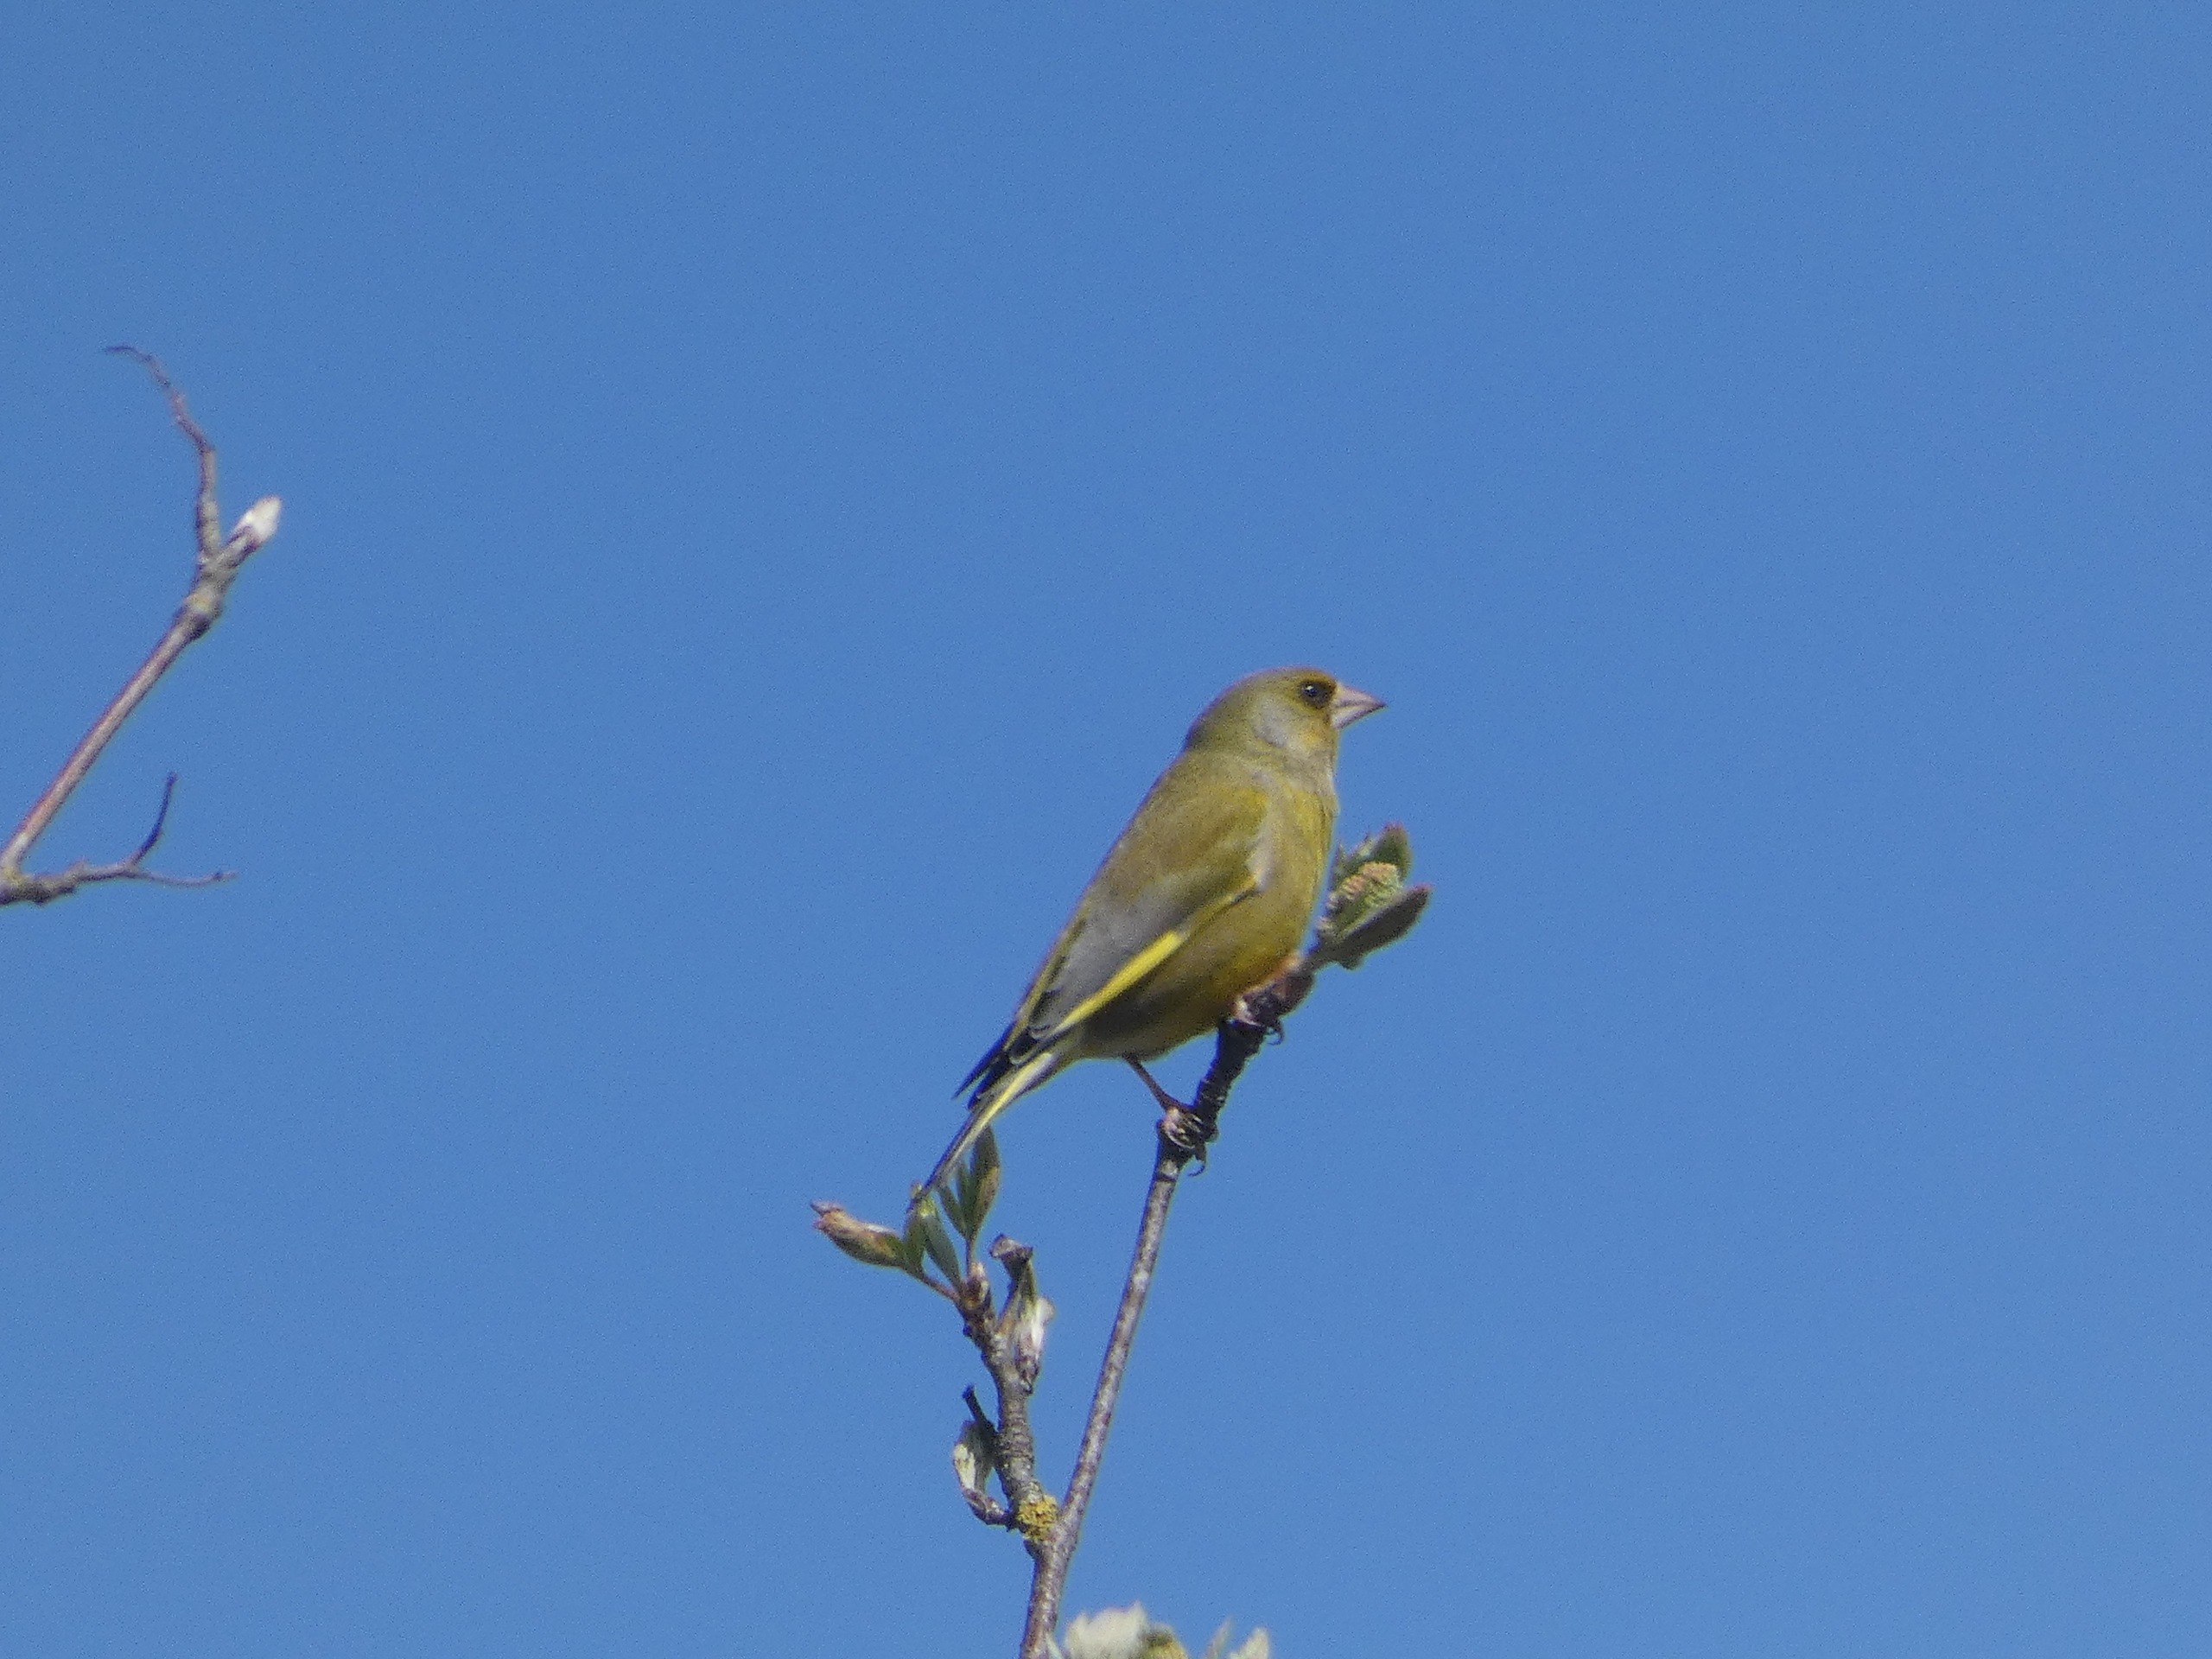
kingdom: Plantae
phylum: Tracheophyta
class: Liliopsida
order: Poales
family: Poaceae
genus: Chloris
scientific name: Chloris chloris
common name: Grønirisk
